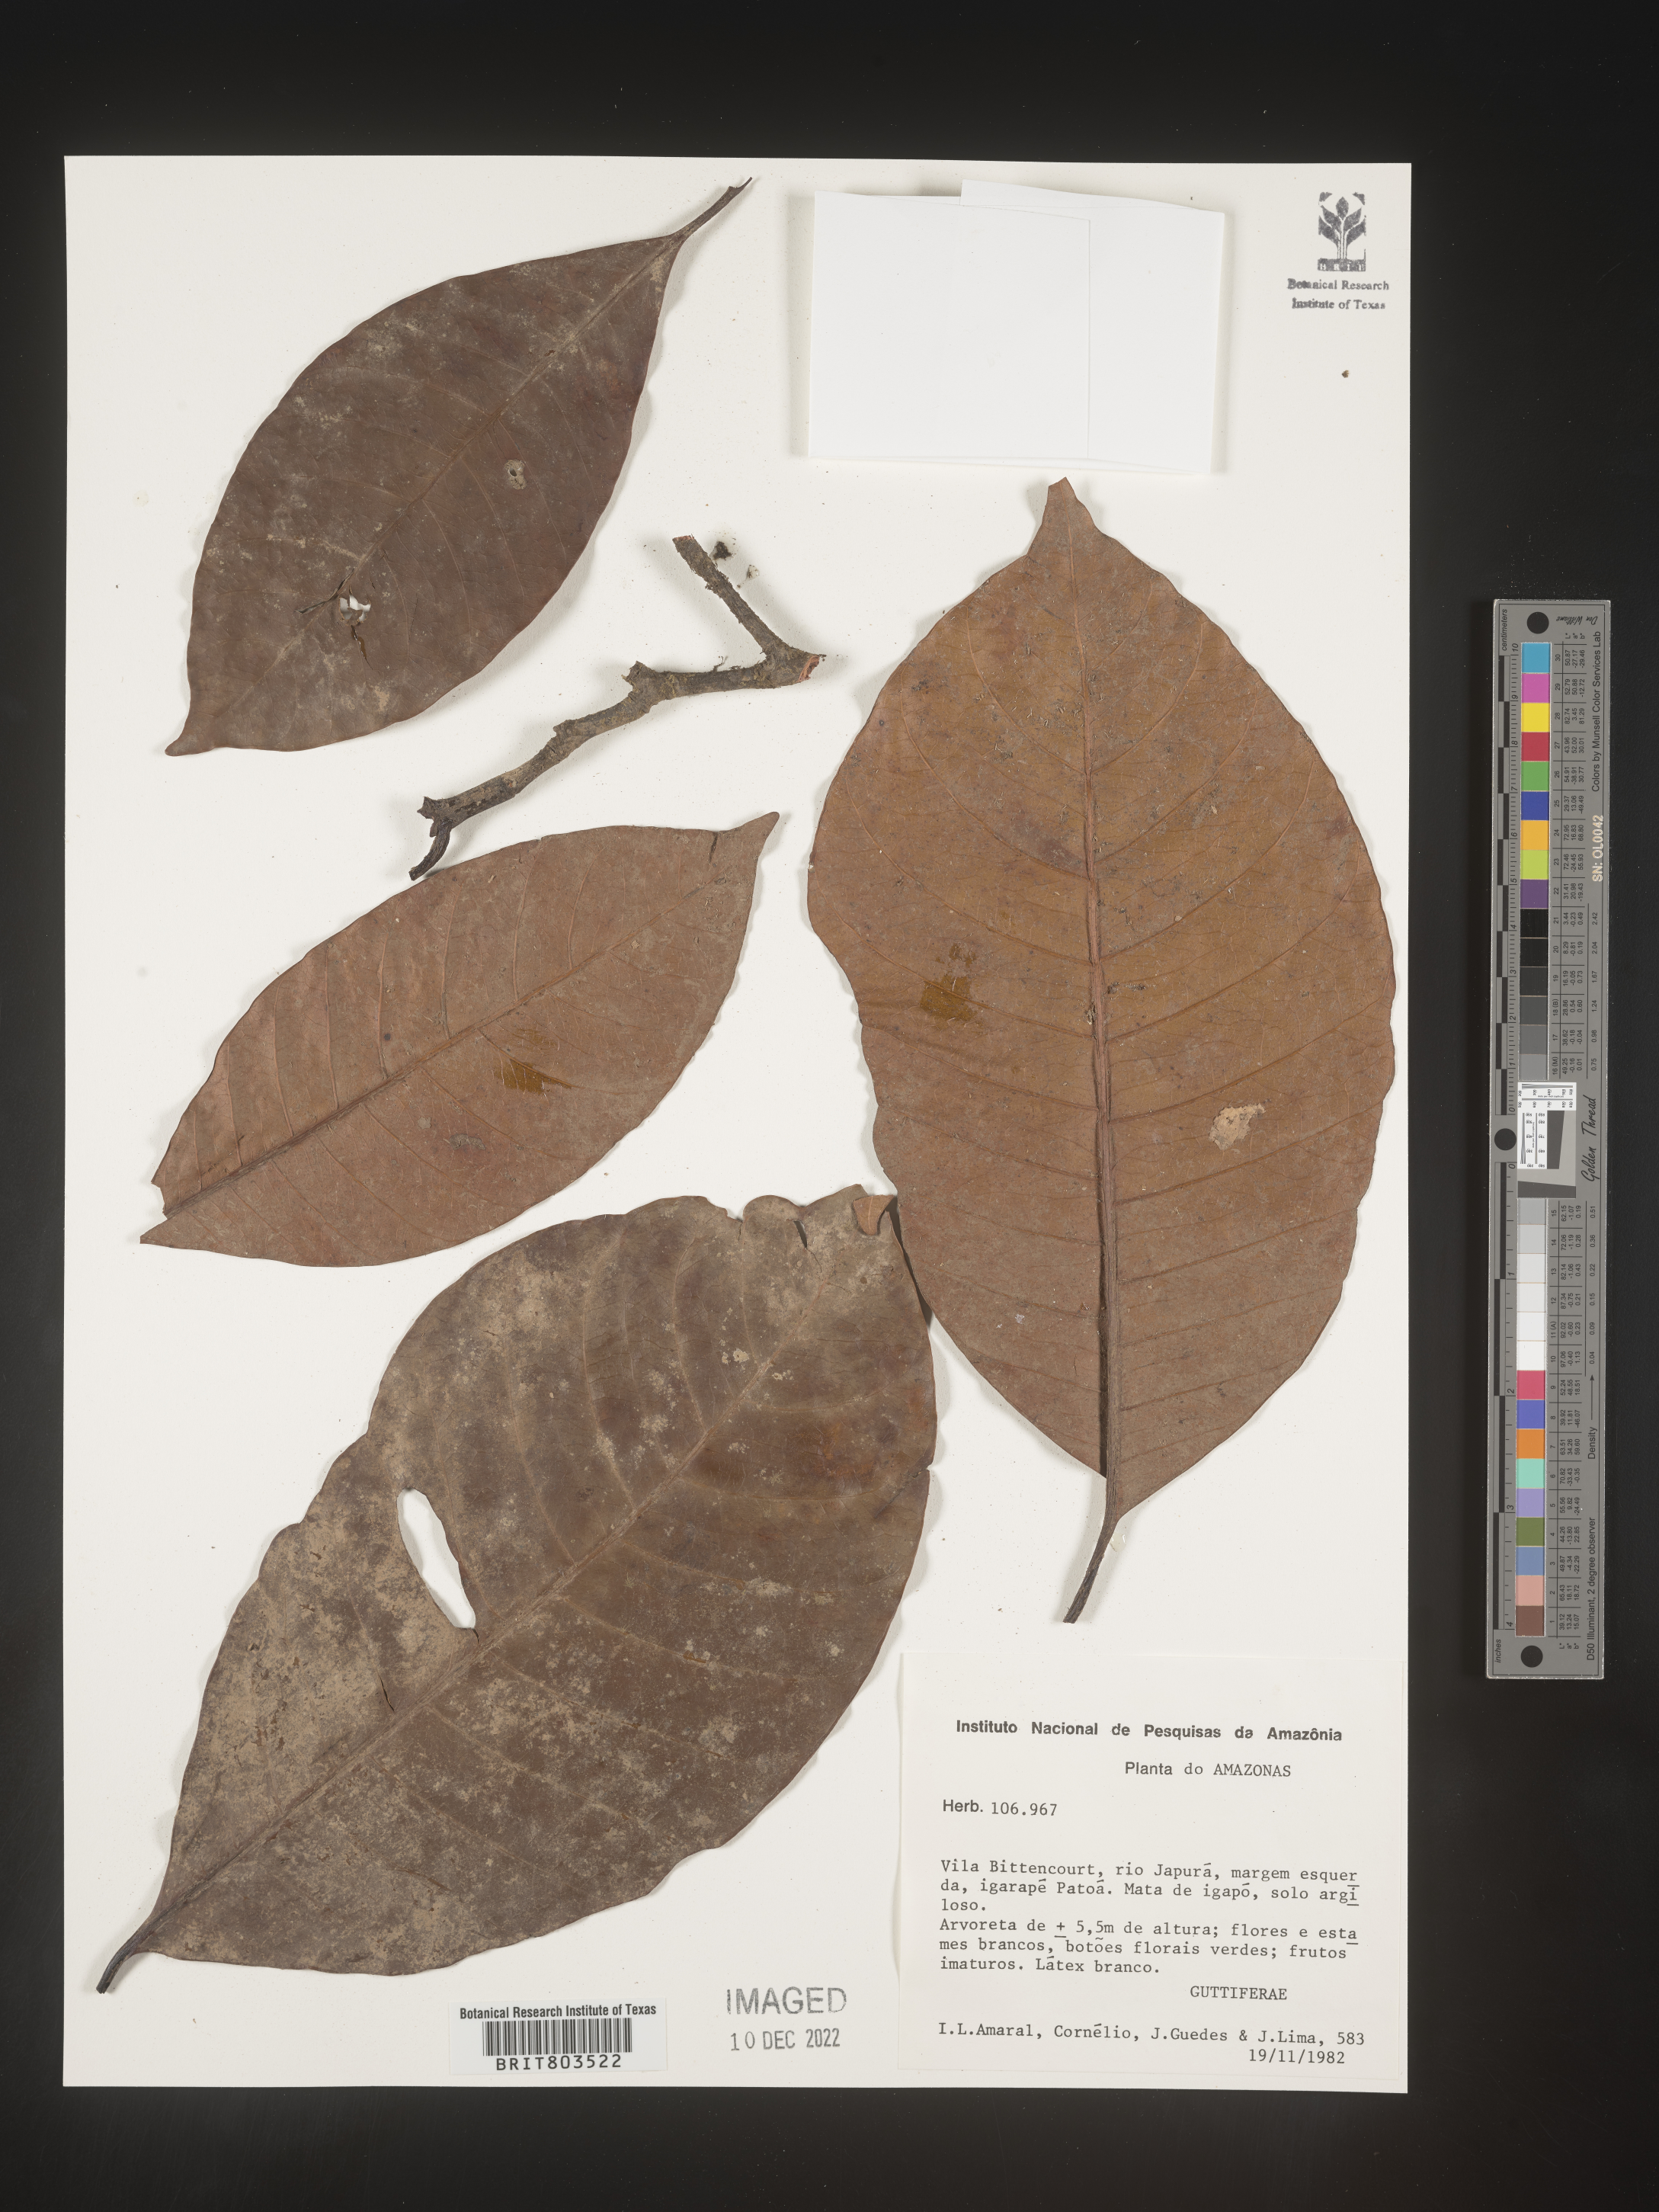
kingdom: Plantae
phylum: Tracheophyta
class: Magnoliopsida
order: Malpighiales
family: Clusiaceae
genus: Tovomita
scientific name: Tovomita
